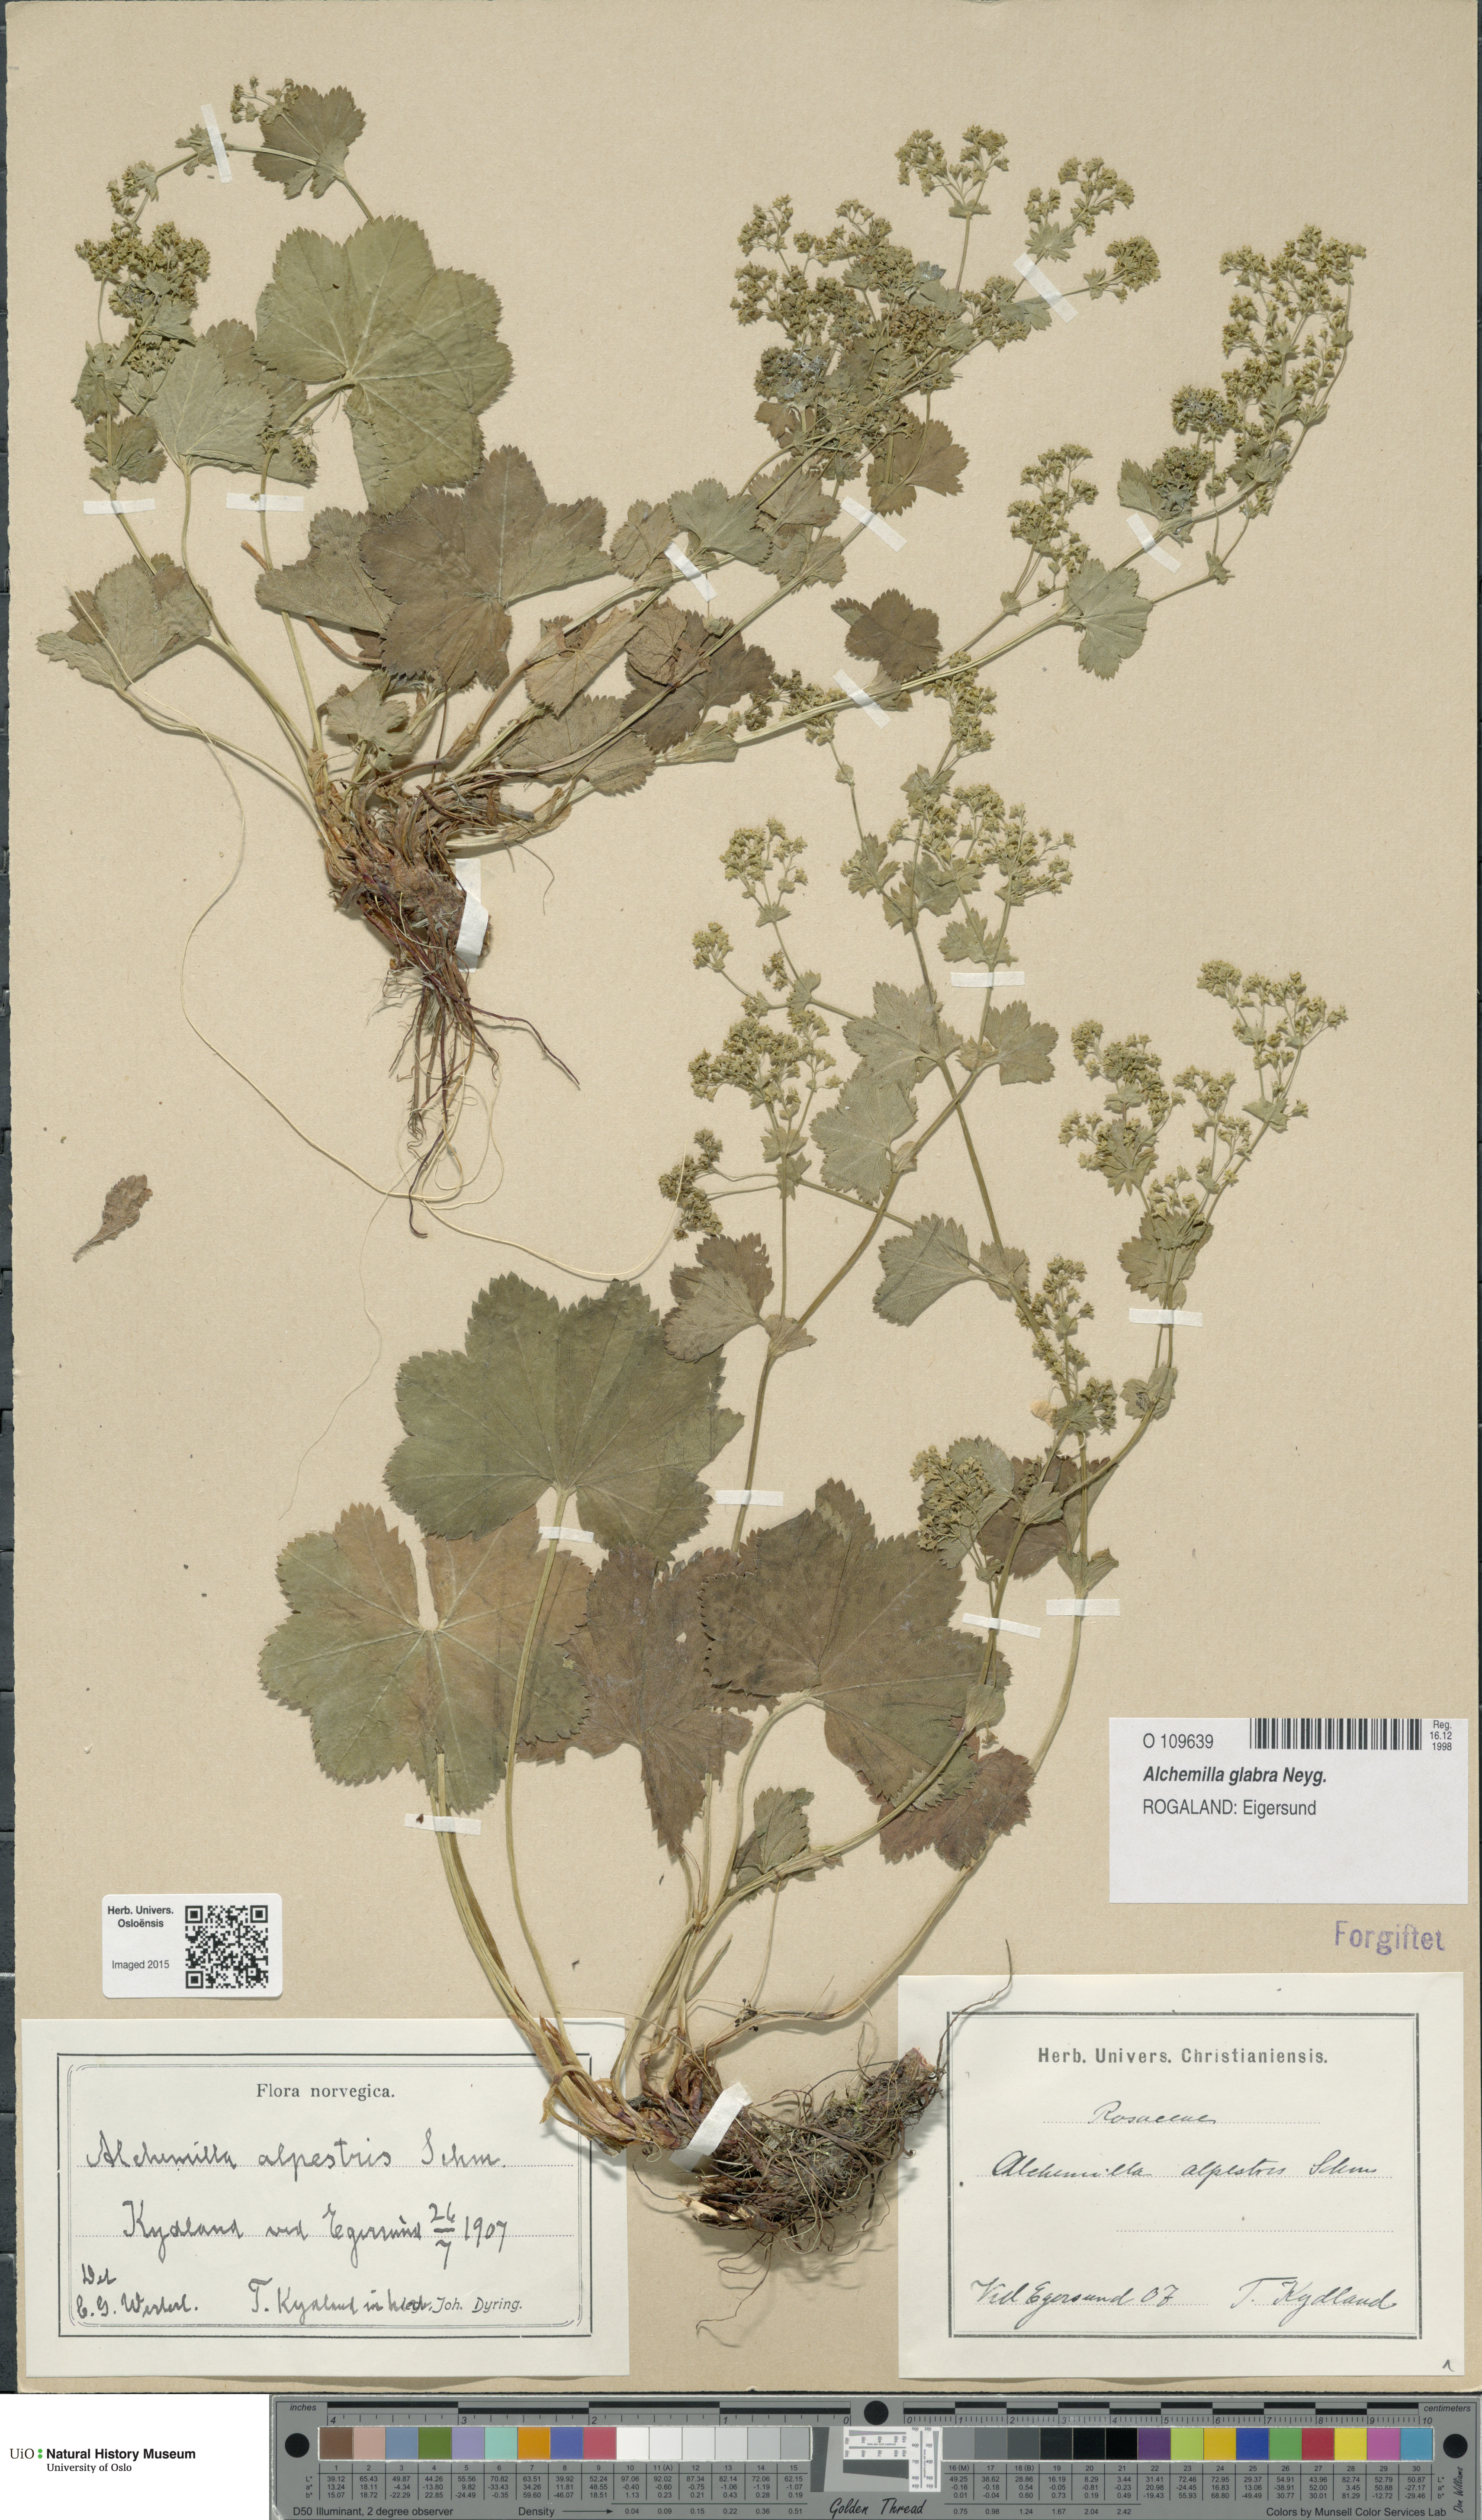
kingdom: Plantae
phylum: Tracheophyta
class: Magnoliopsida
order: Rosales
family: Rosaceae
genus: Alchemilla
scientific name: Alchemilla glabra
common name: Smooth lady's-mantle
